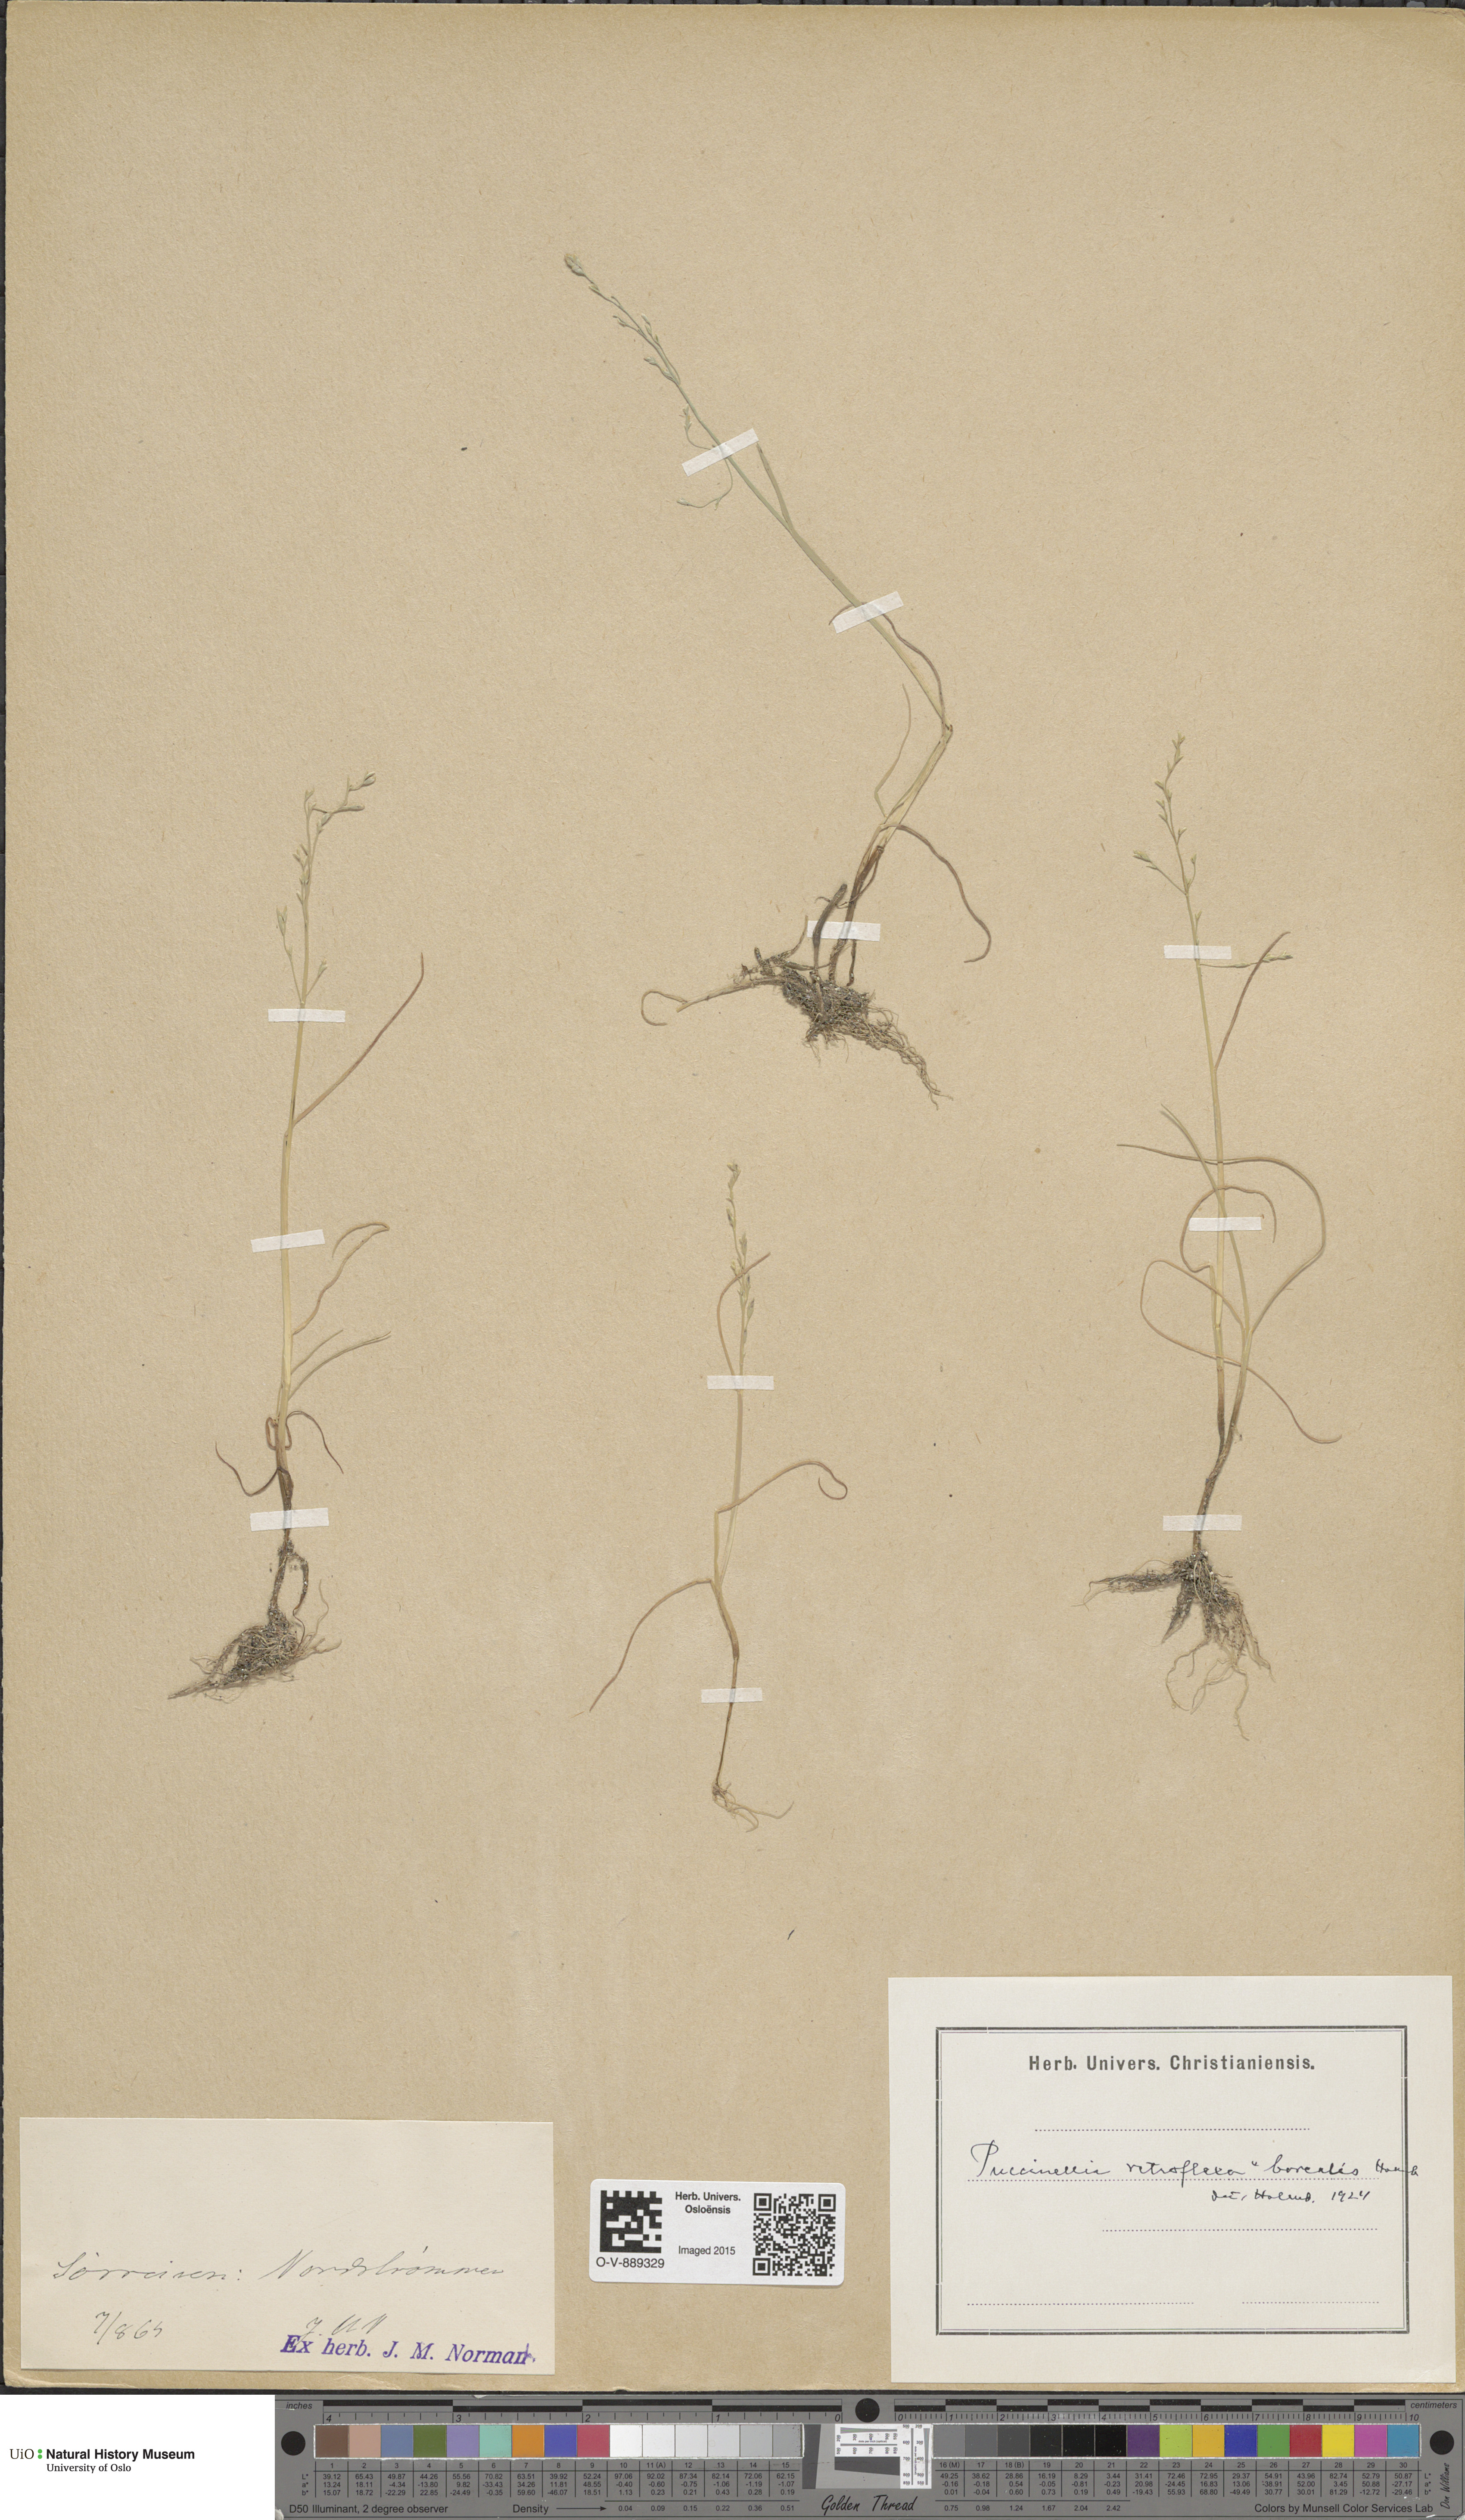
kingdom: Plantae
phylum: Tracheophyta
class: Liliopsida
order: Poales
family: Poaceae
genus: Puccinellia
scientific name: Puccinellia distans
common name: Weeping alkaligrass
